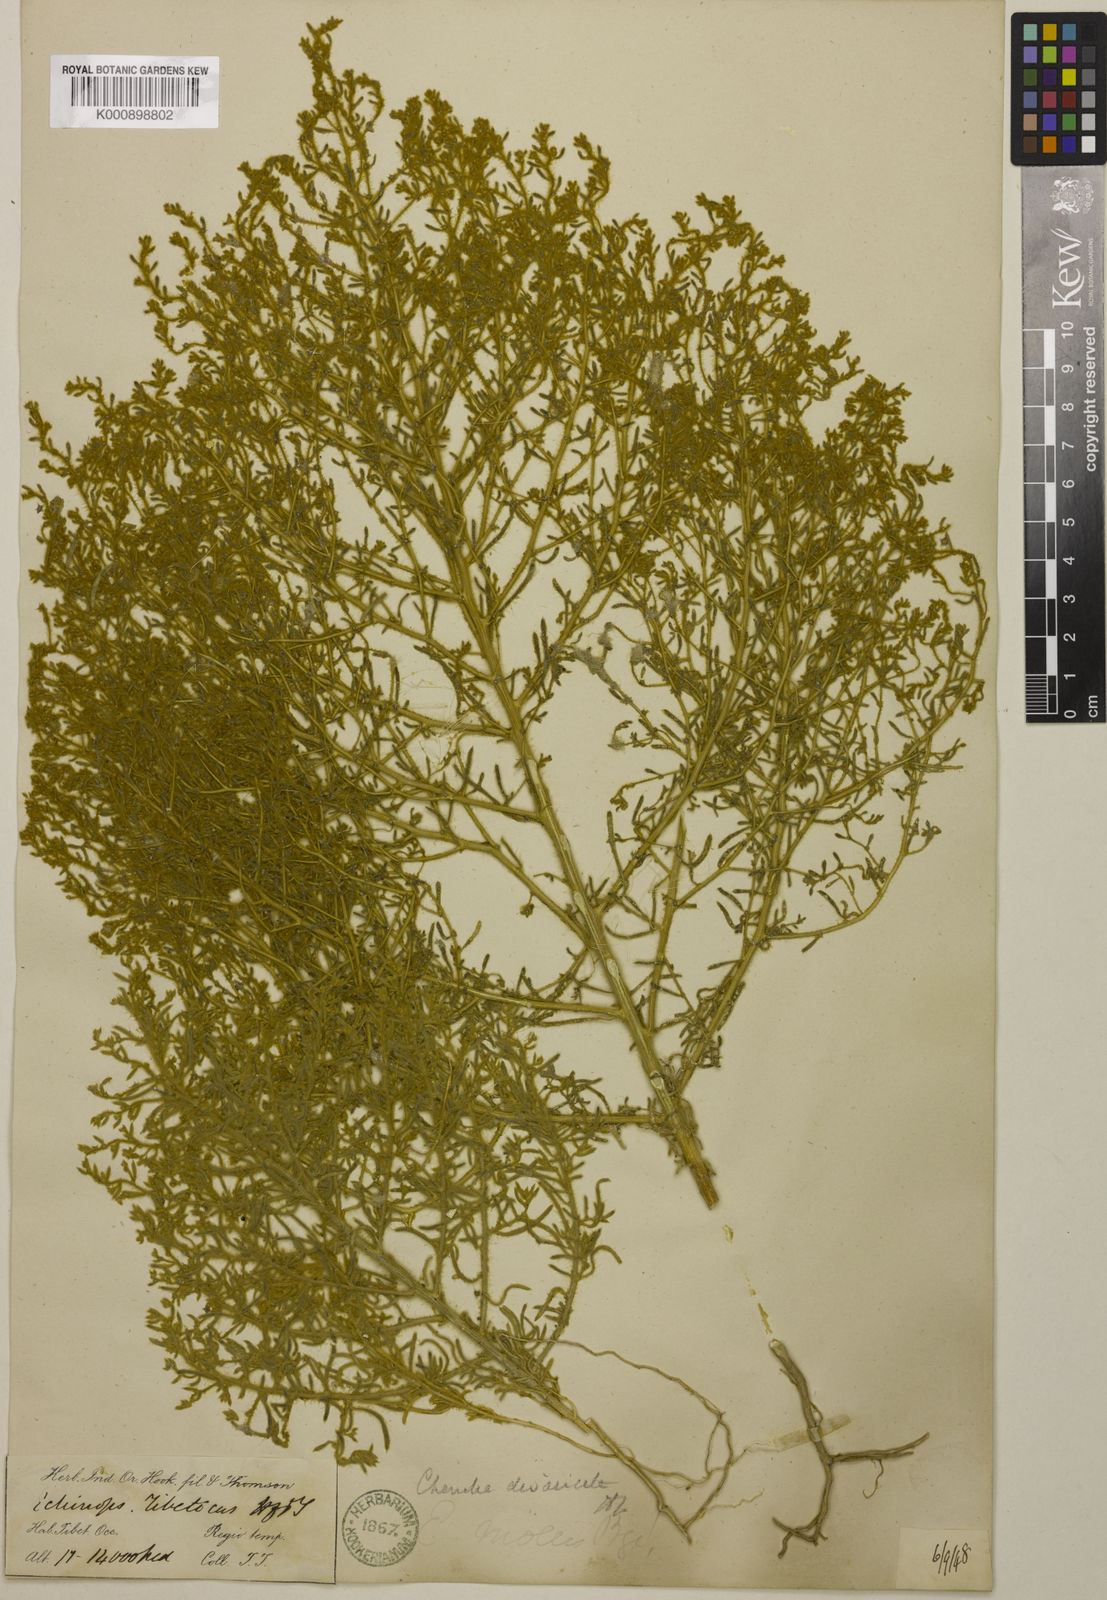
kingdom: Plantae
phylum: Tracheophyta
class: Magnoliopsida
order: Caryophyllales
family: Amaranthaceae
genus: Grubovia
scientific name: Grubovia dasyphylla
